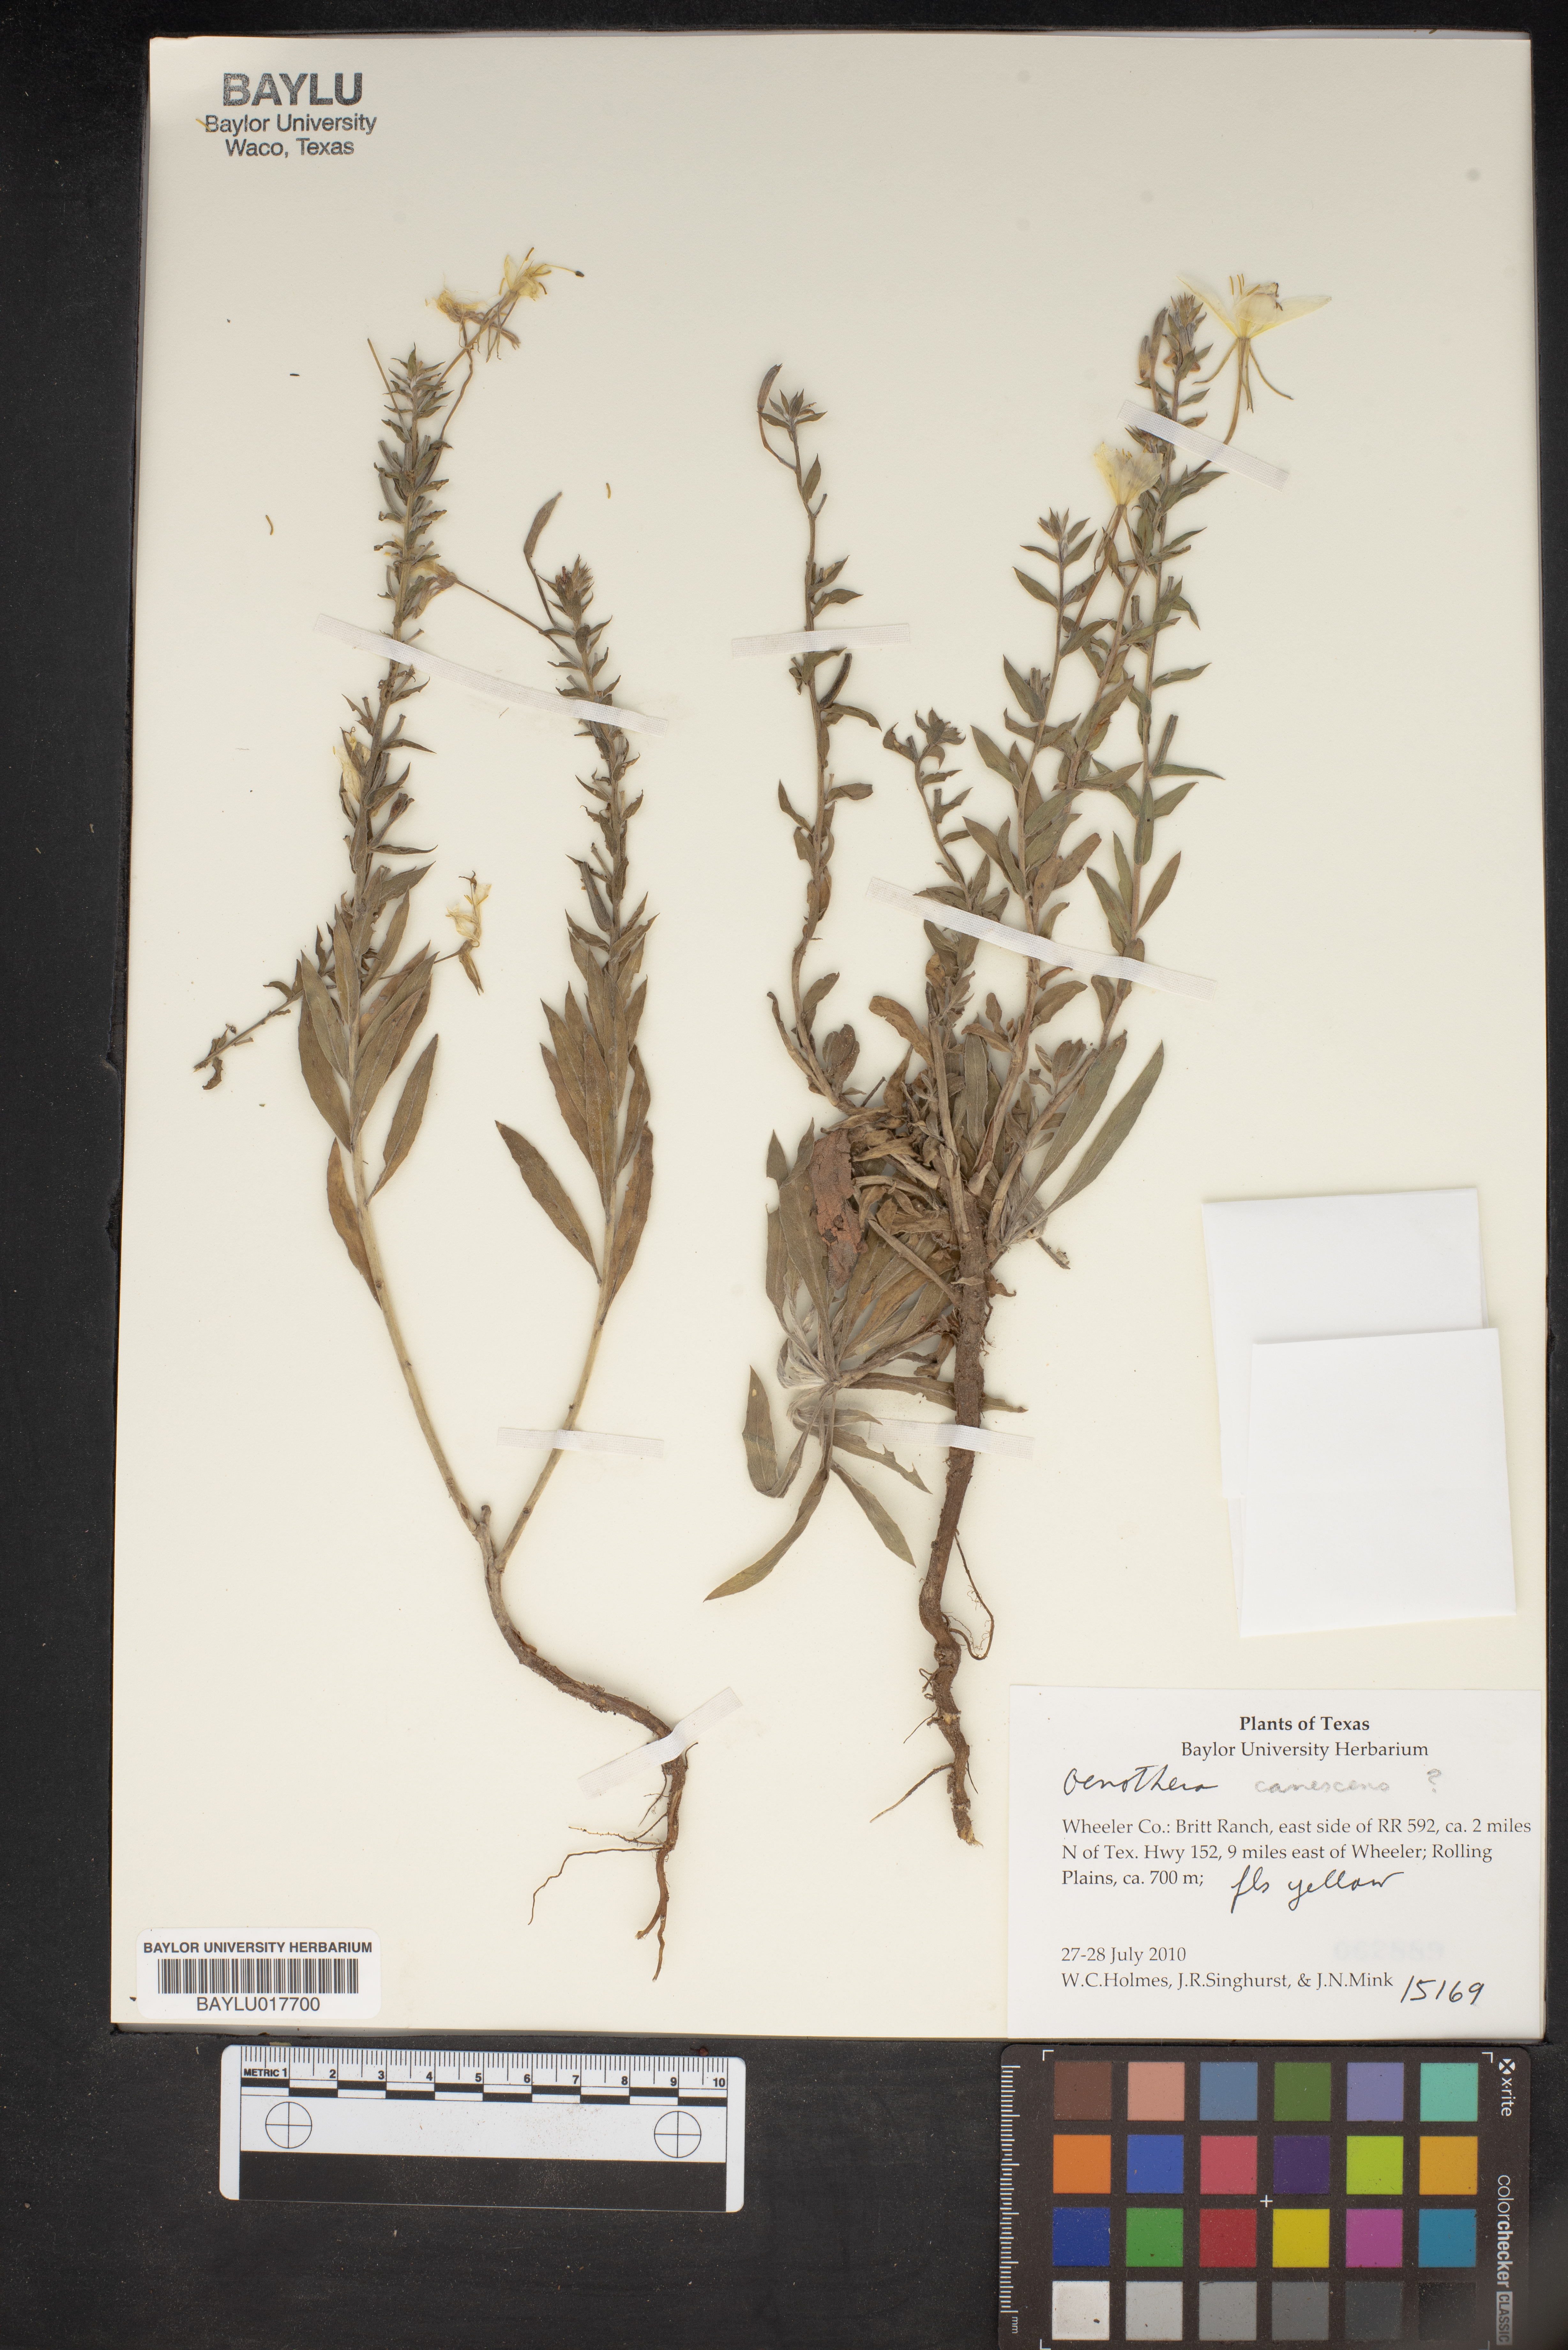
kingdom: Plantae
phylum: Tracheophyta
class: Magnoliopsida
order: Myrtales
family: Onagraceae
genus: Oenothera
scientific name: Oenothera canescens
